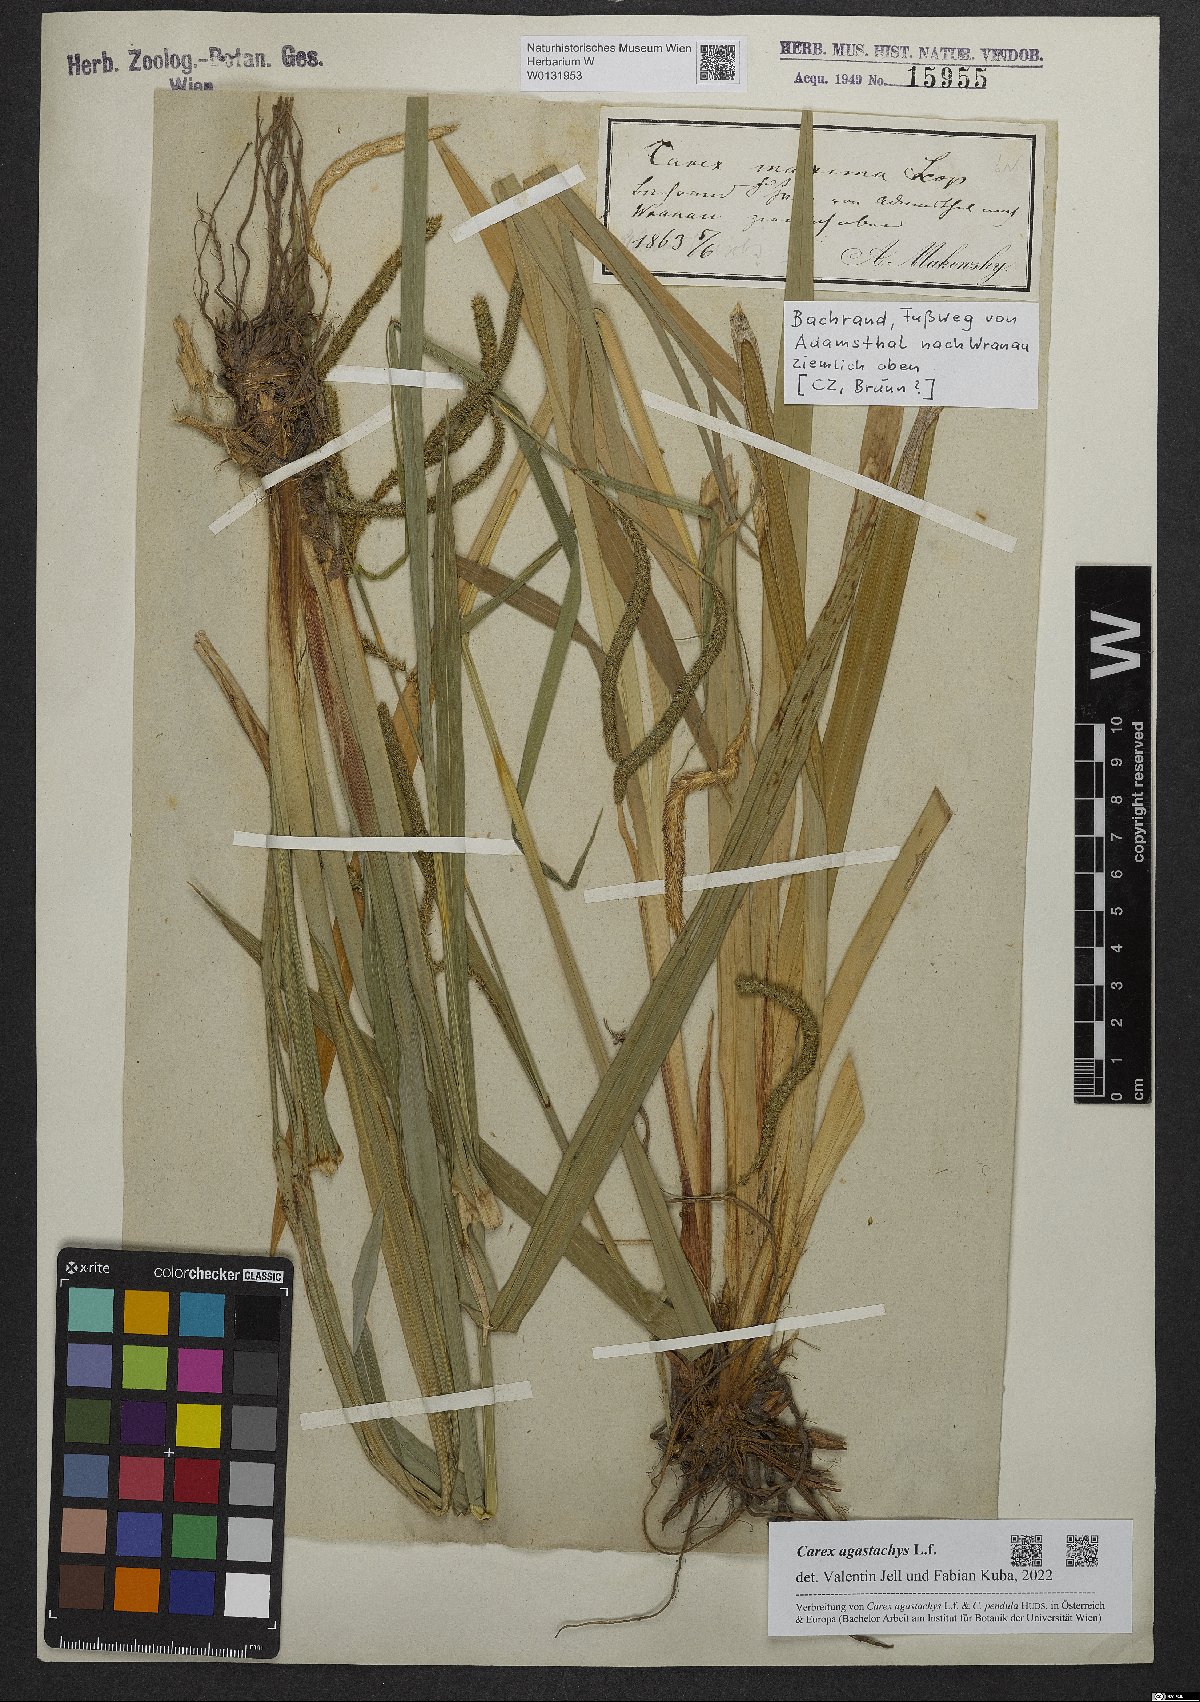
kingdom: Plantae
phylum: Tracheophyta
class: Liliopsida
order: Poales
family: Cyperaceae
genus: Carex
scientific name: Carex agastachys
